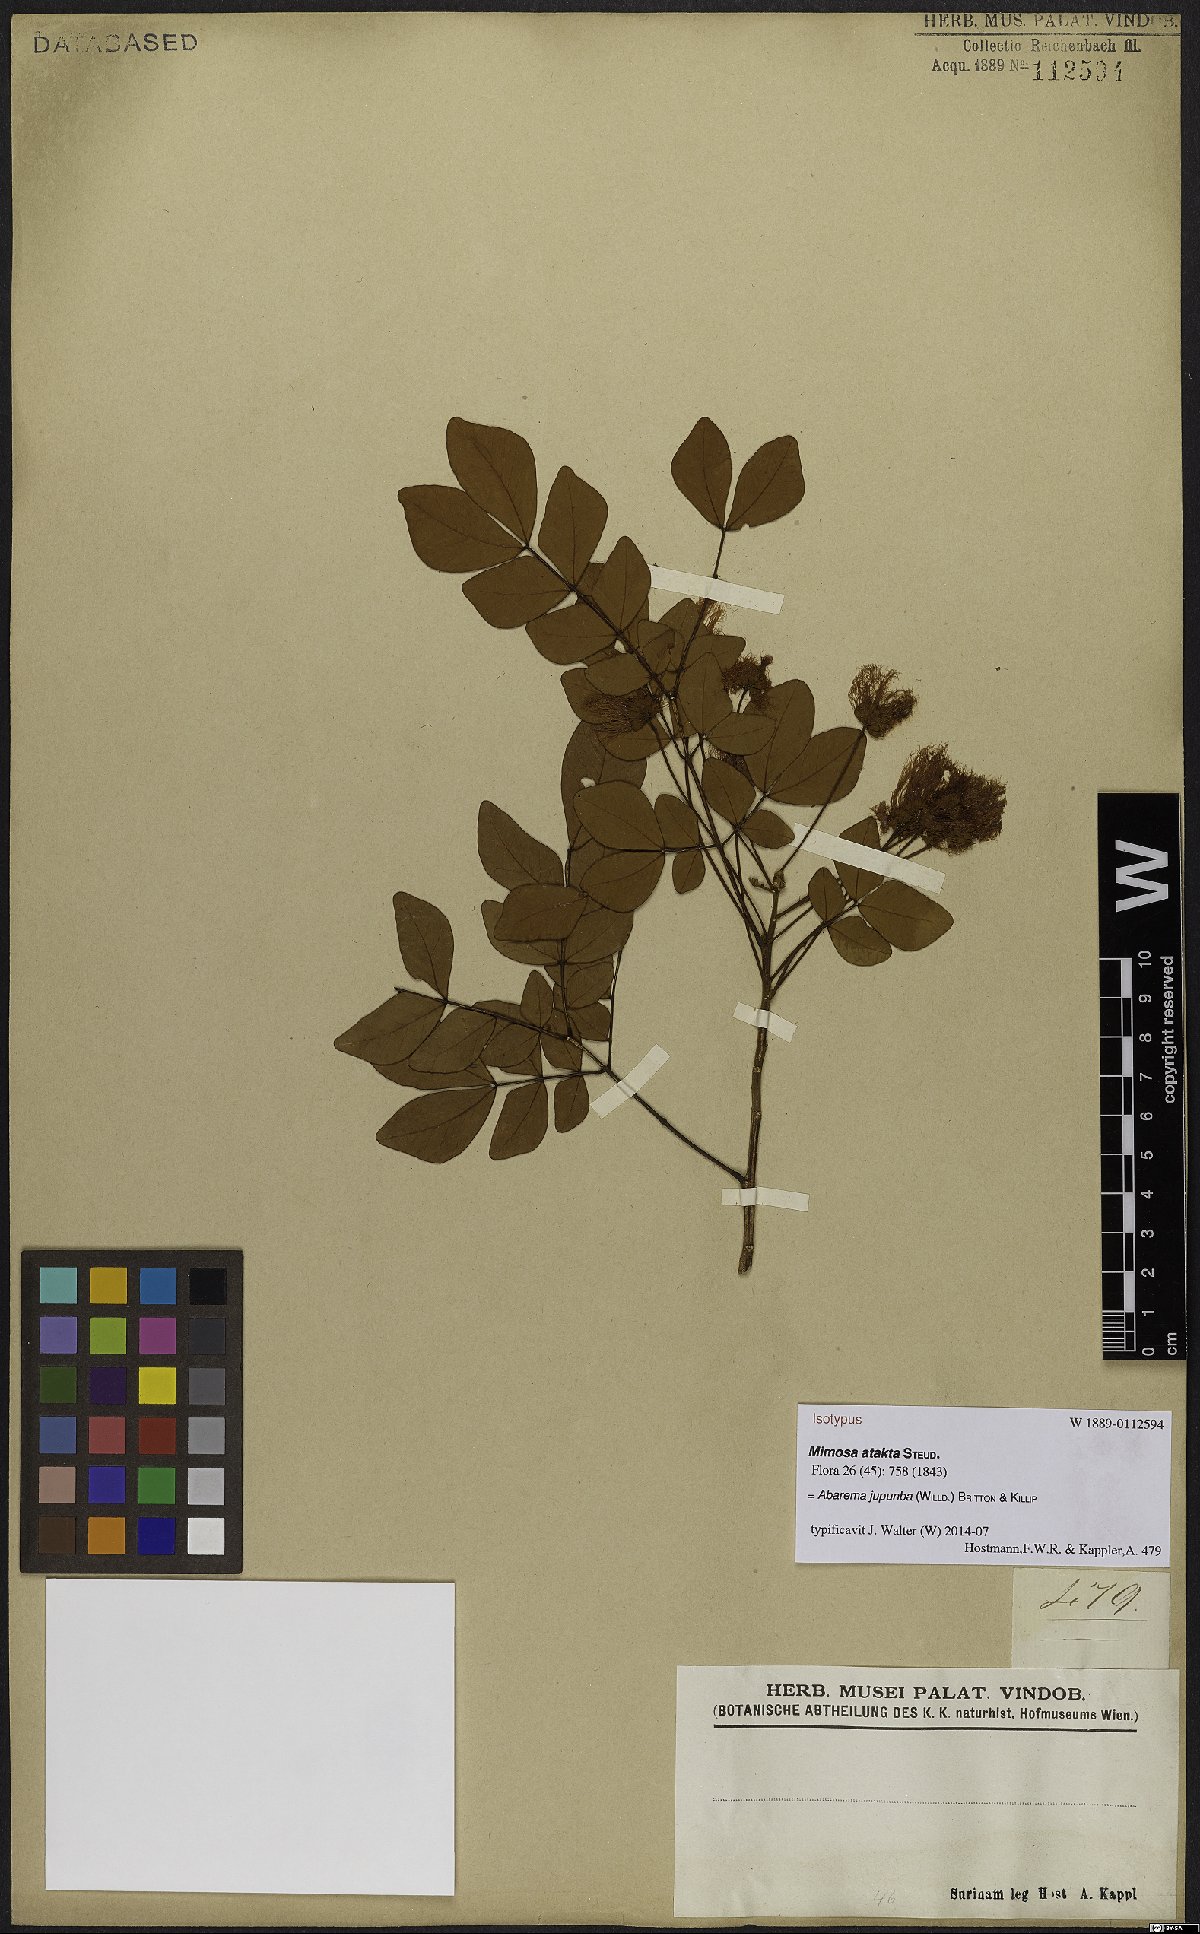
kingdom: Plantae
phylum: Tracheophyta
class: Magnoliopsida
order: Fabales
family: Fabaceae
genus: Jupunba
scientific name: Jupunba trapezifolia
